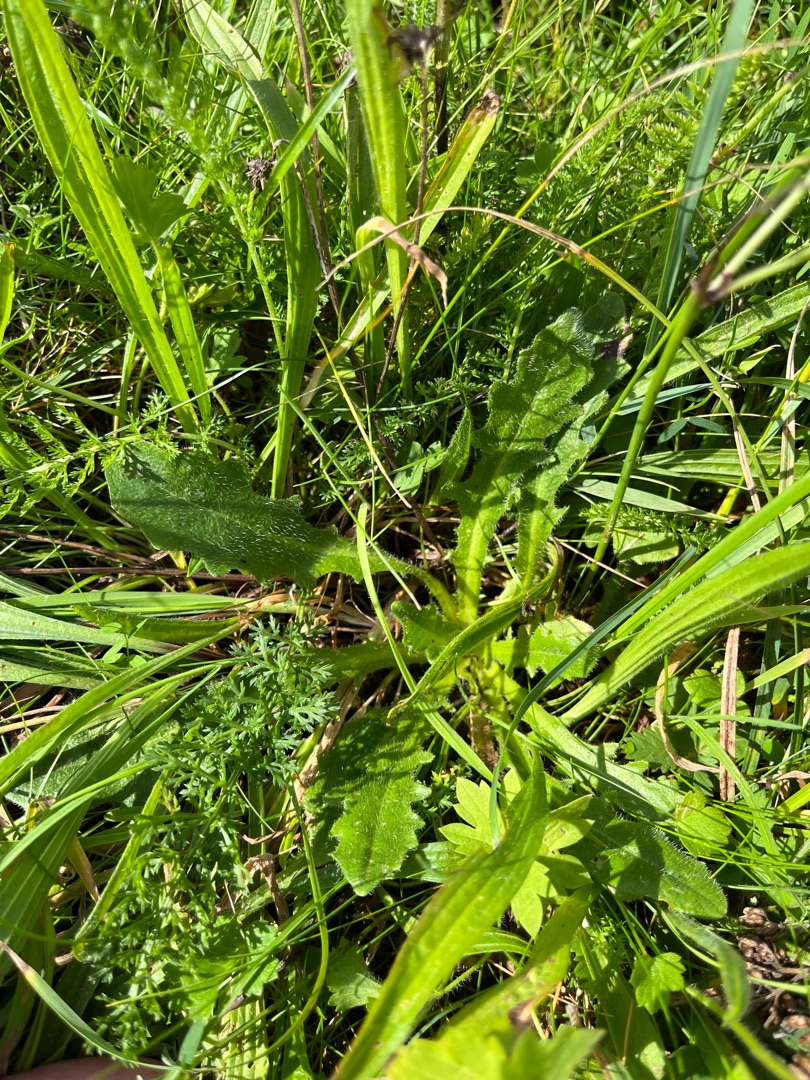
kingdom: Plantae
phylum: Tracheophyta
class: Magnoliopsida
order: Asterales
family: Asteraceae
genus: Hypochaeris
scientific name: Hypochaeris radicata
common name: Almindelig kongepen
